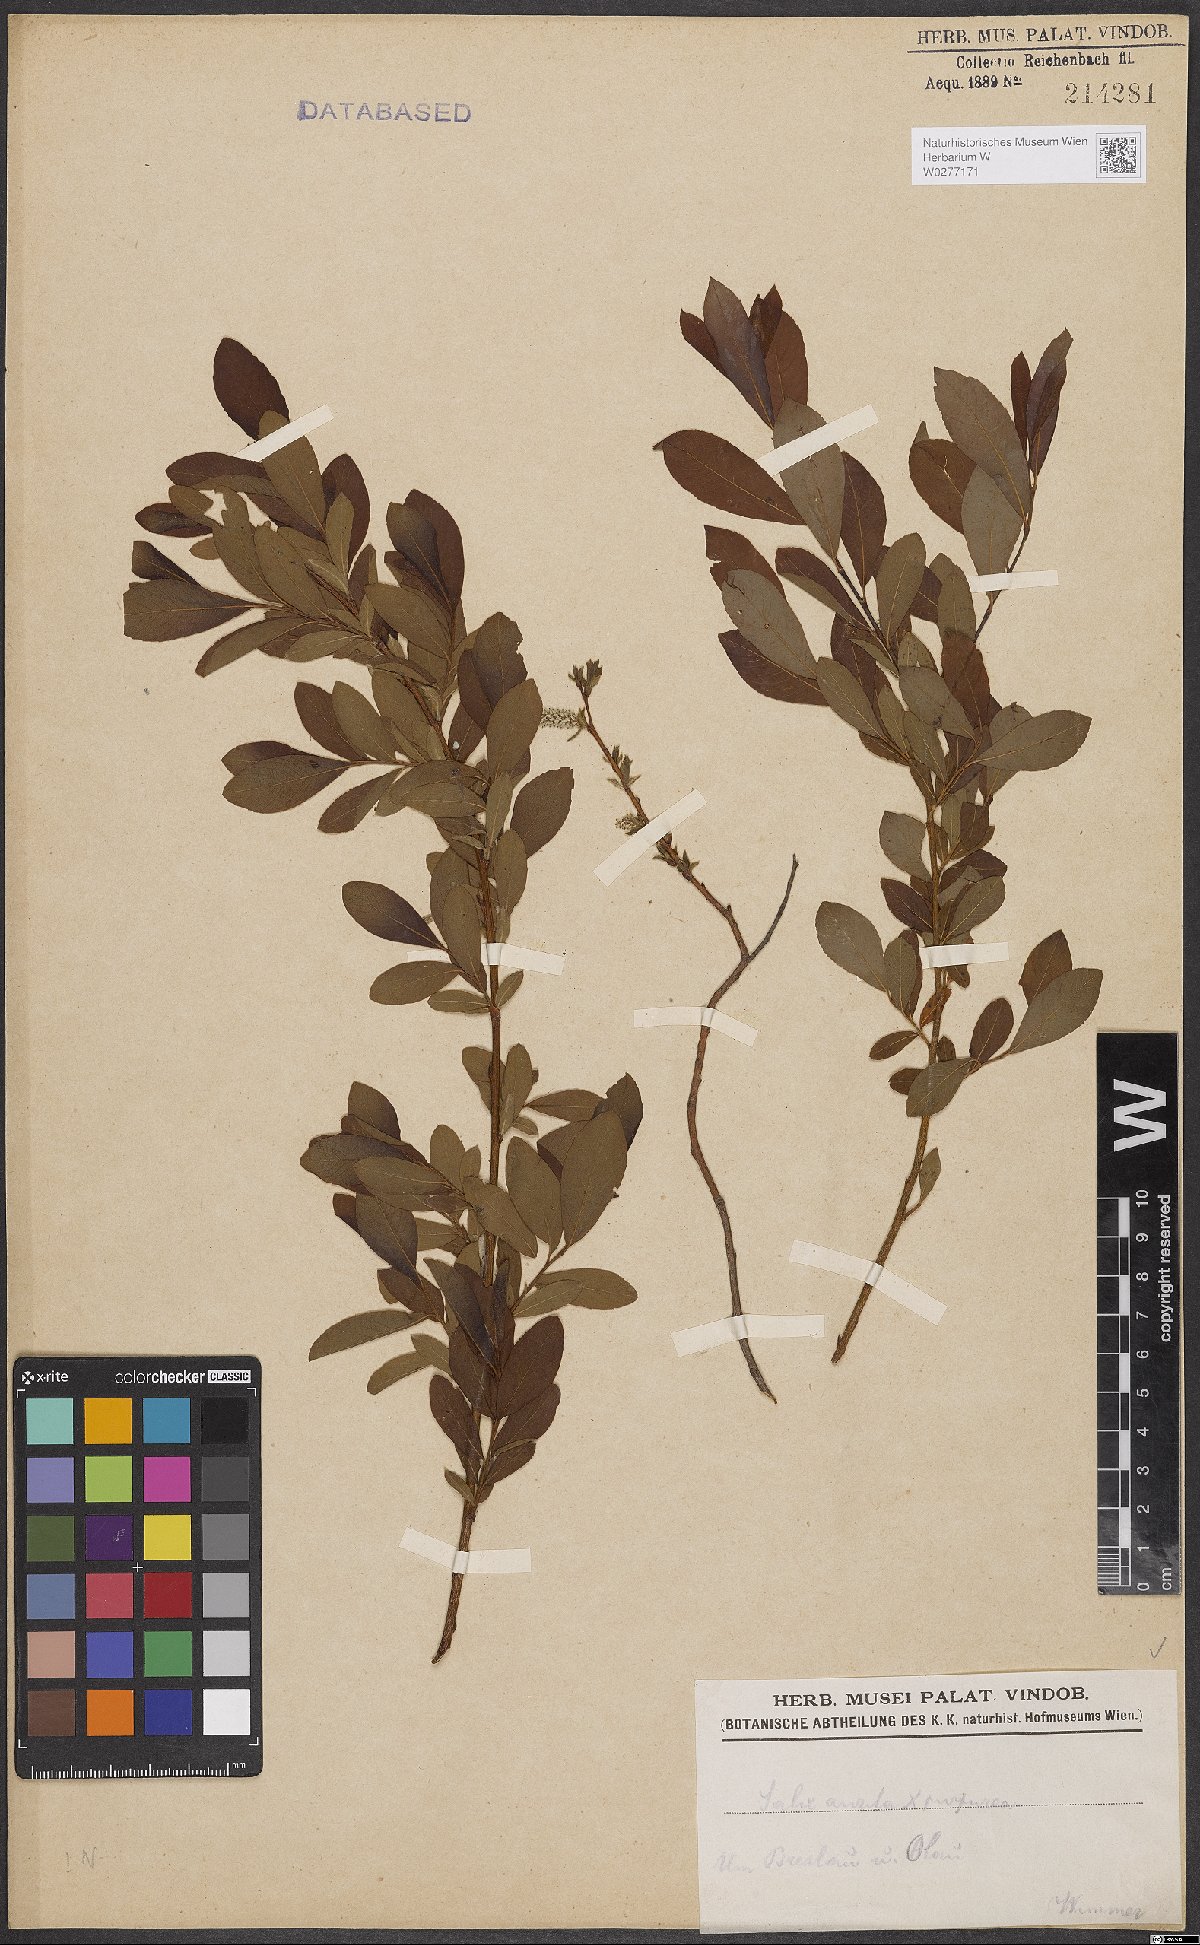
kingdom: Plantae
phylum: Tracheophyta
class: Magnoliopsida
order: Malpighiales
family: Salicaceae
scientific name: Salicaceae
